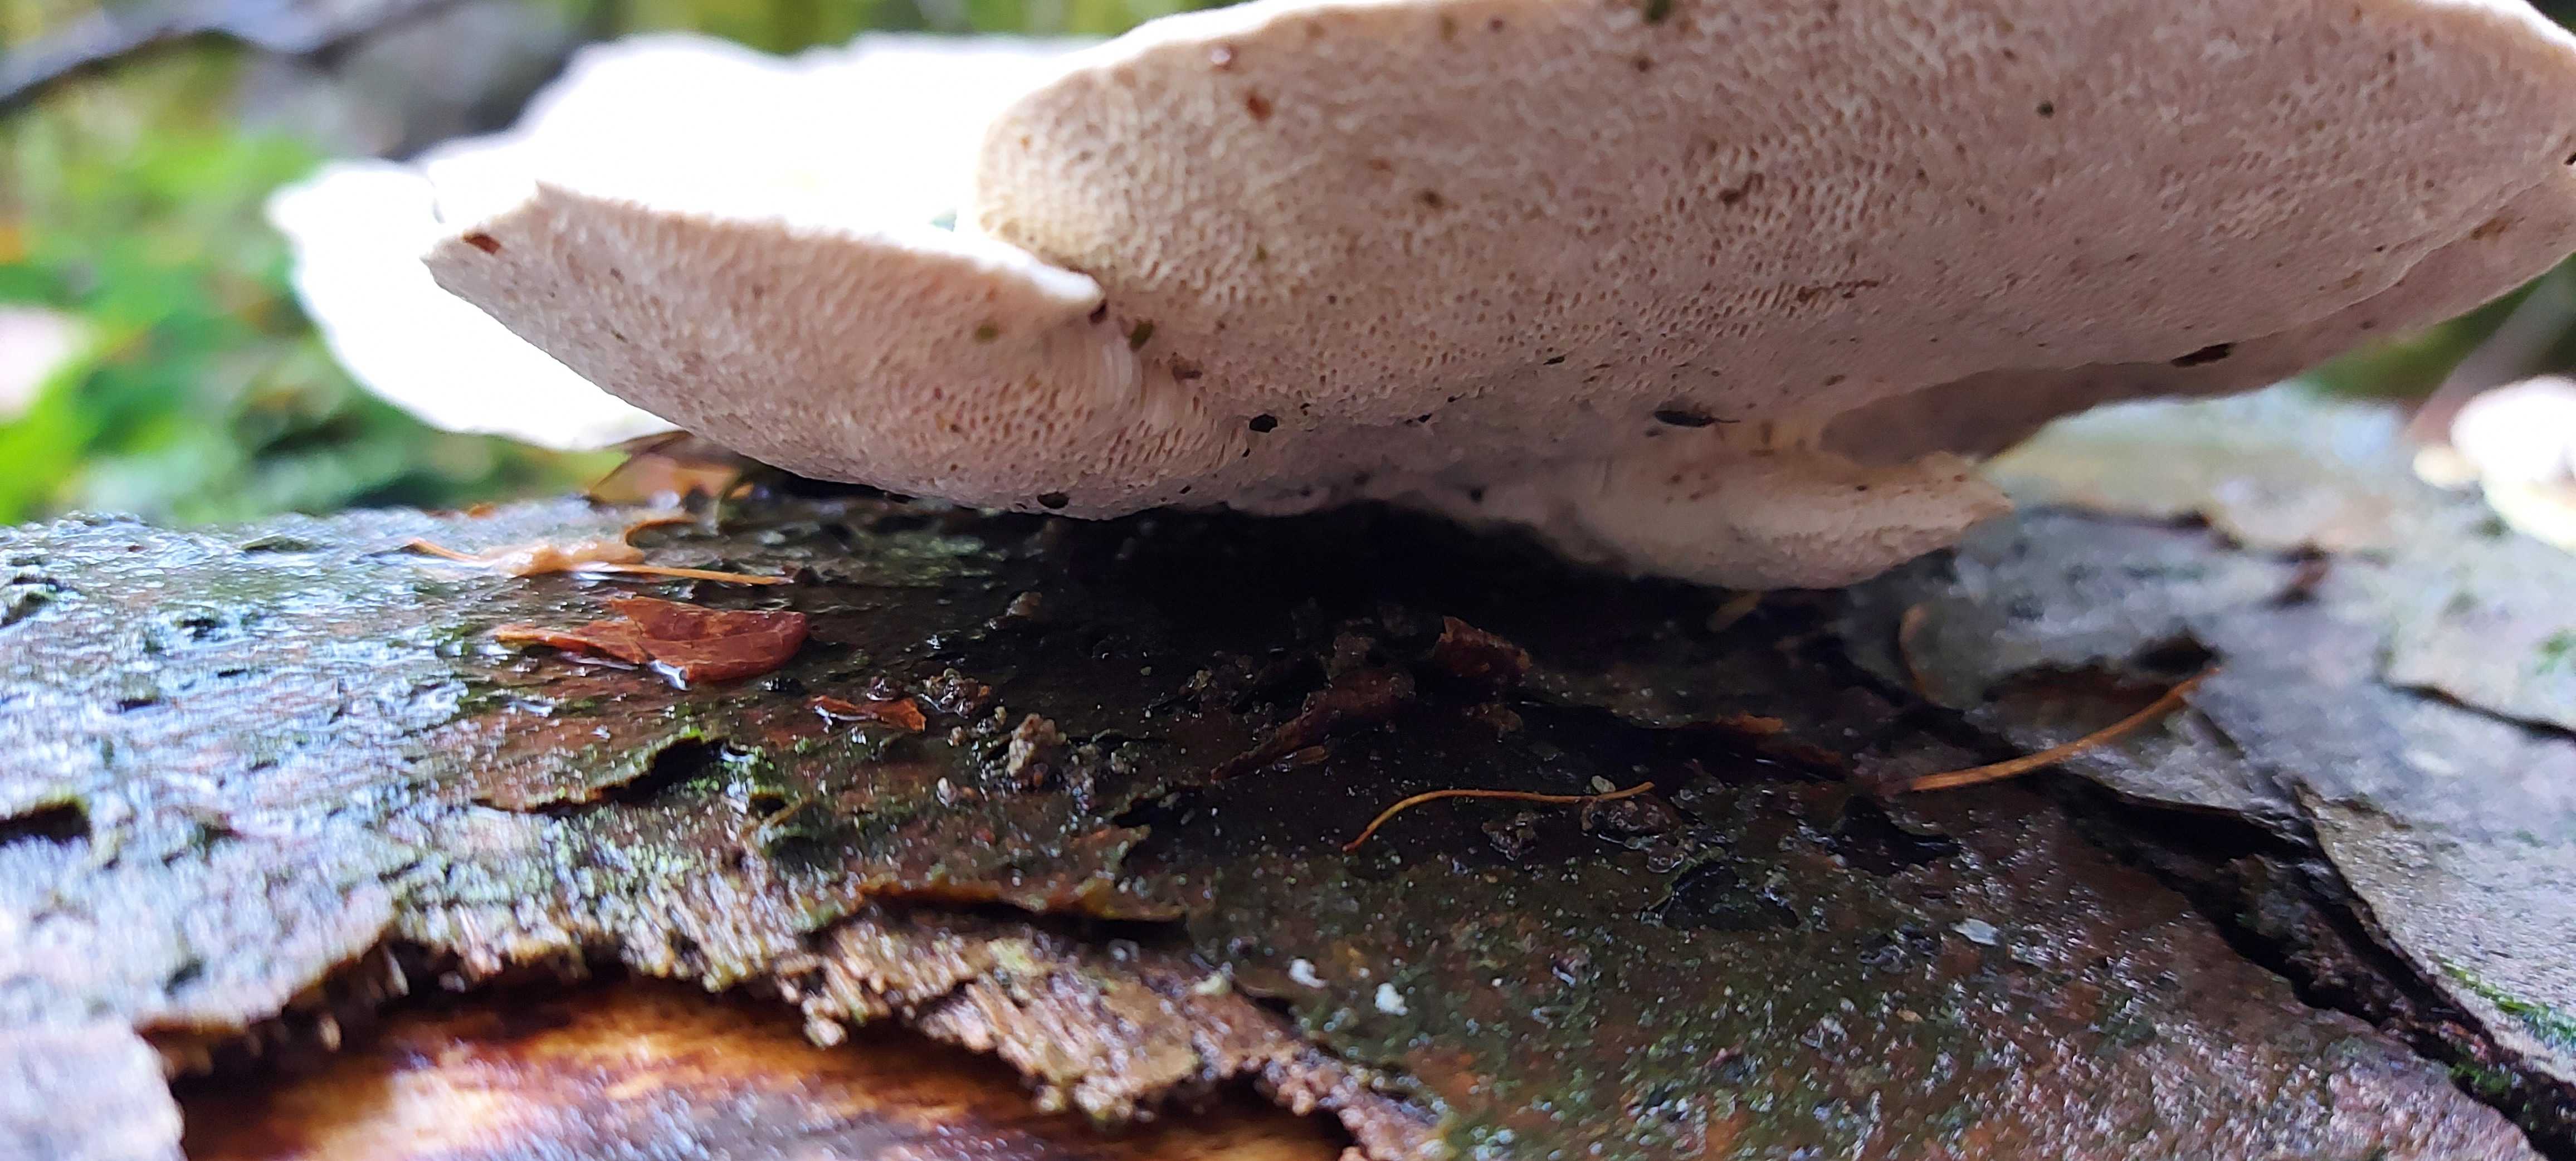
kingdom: Fungi
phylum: Basidiomycota
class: Agaricomycetes
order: Polyporales
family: Polyporaceae
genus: Trametes
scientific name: Trametes gibbosa
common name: puklet læderporesvamp
